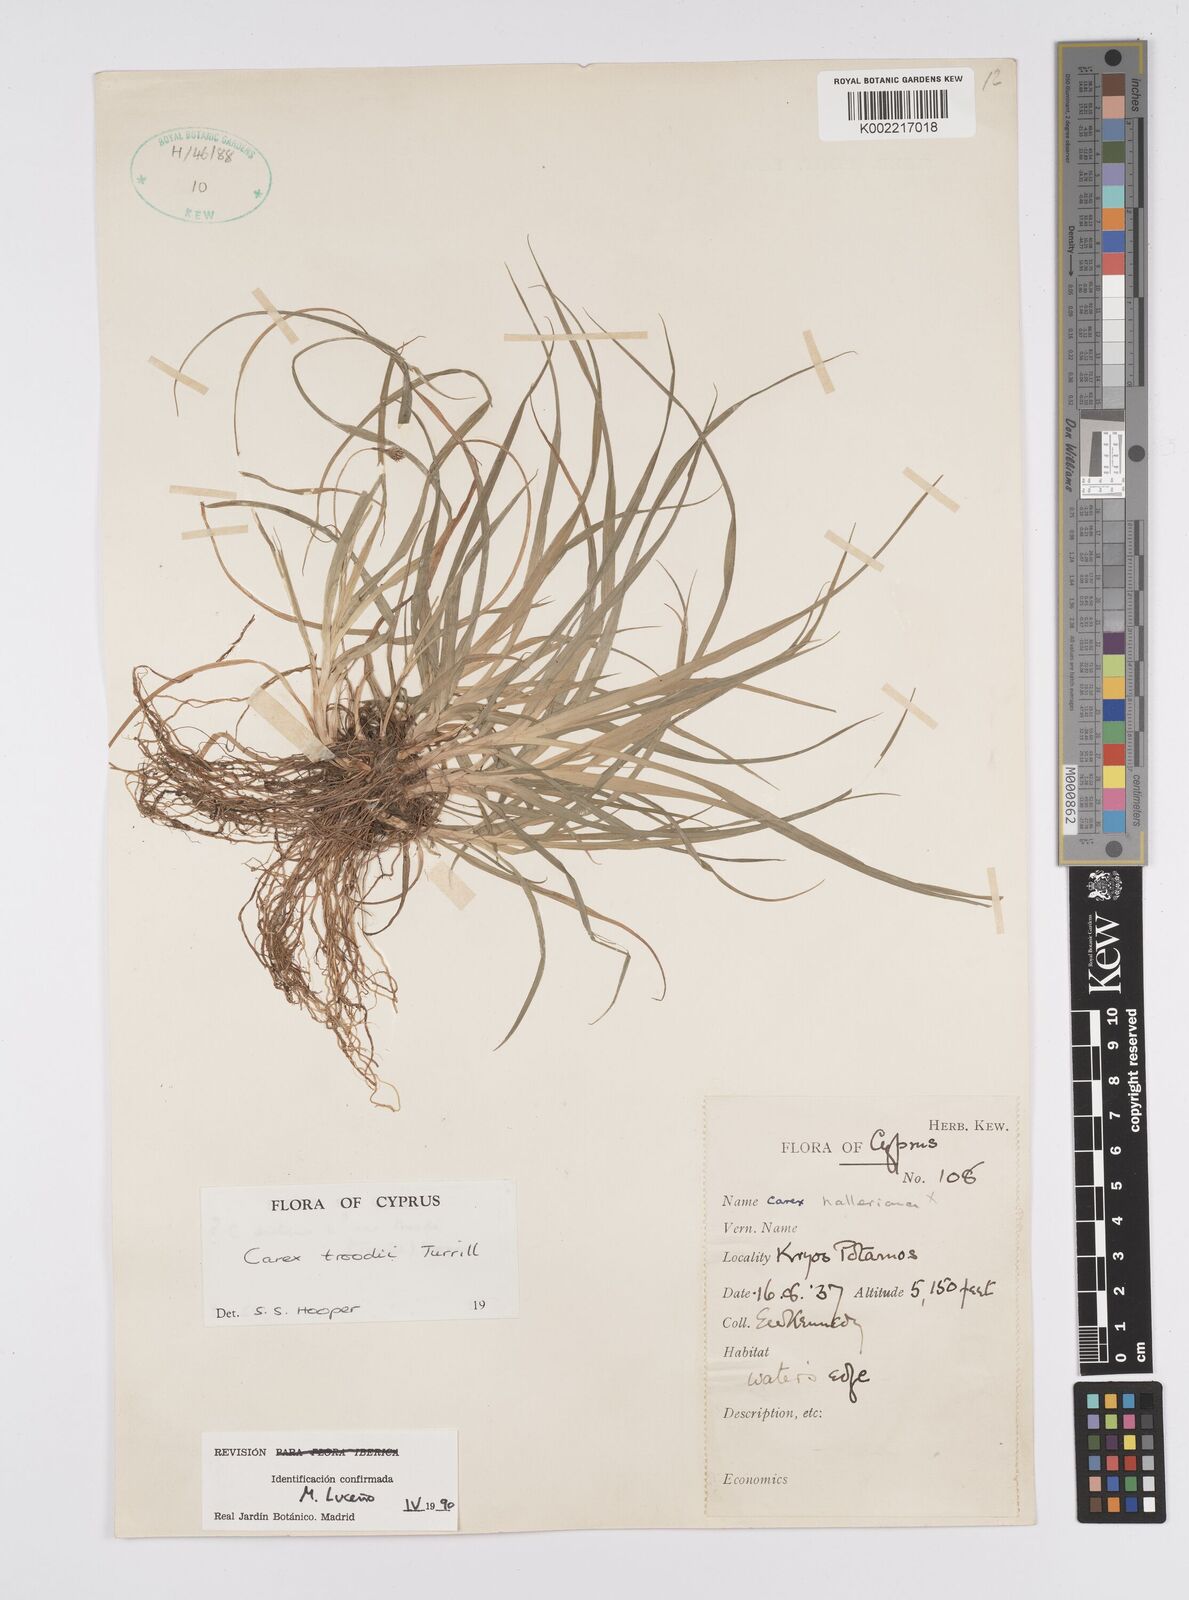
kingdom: Plantae
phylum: Tracheophyta
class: Liliopsida
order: Poales
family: Cyperaceae
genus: Carex
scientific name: Carex troodi
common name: Troodos mount sedge
